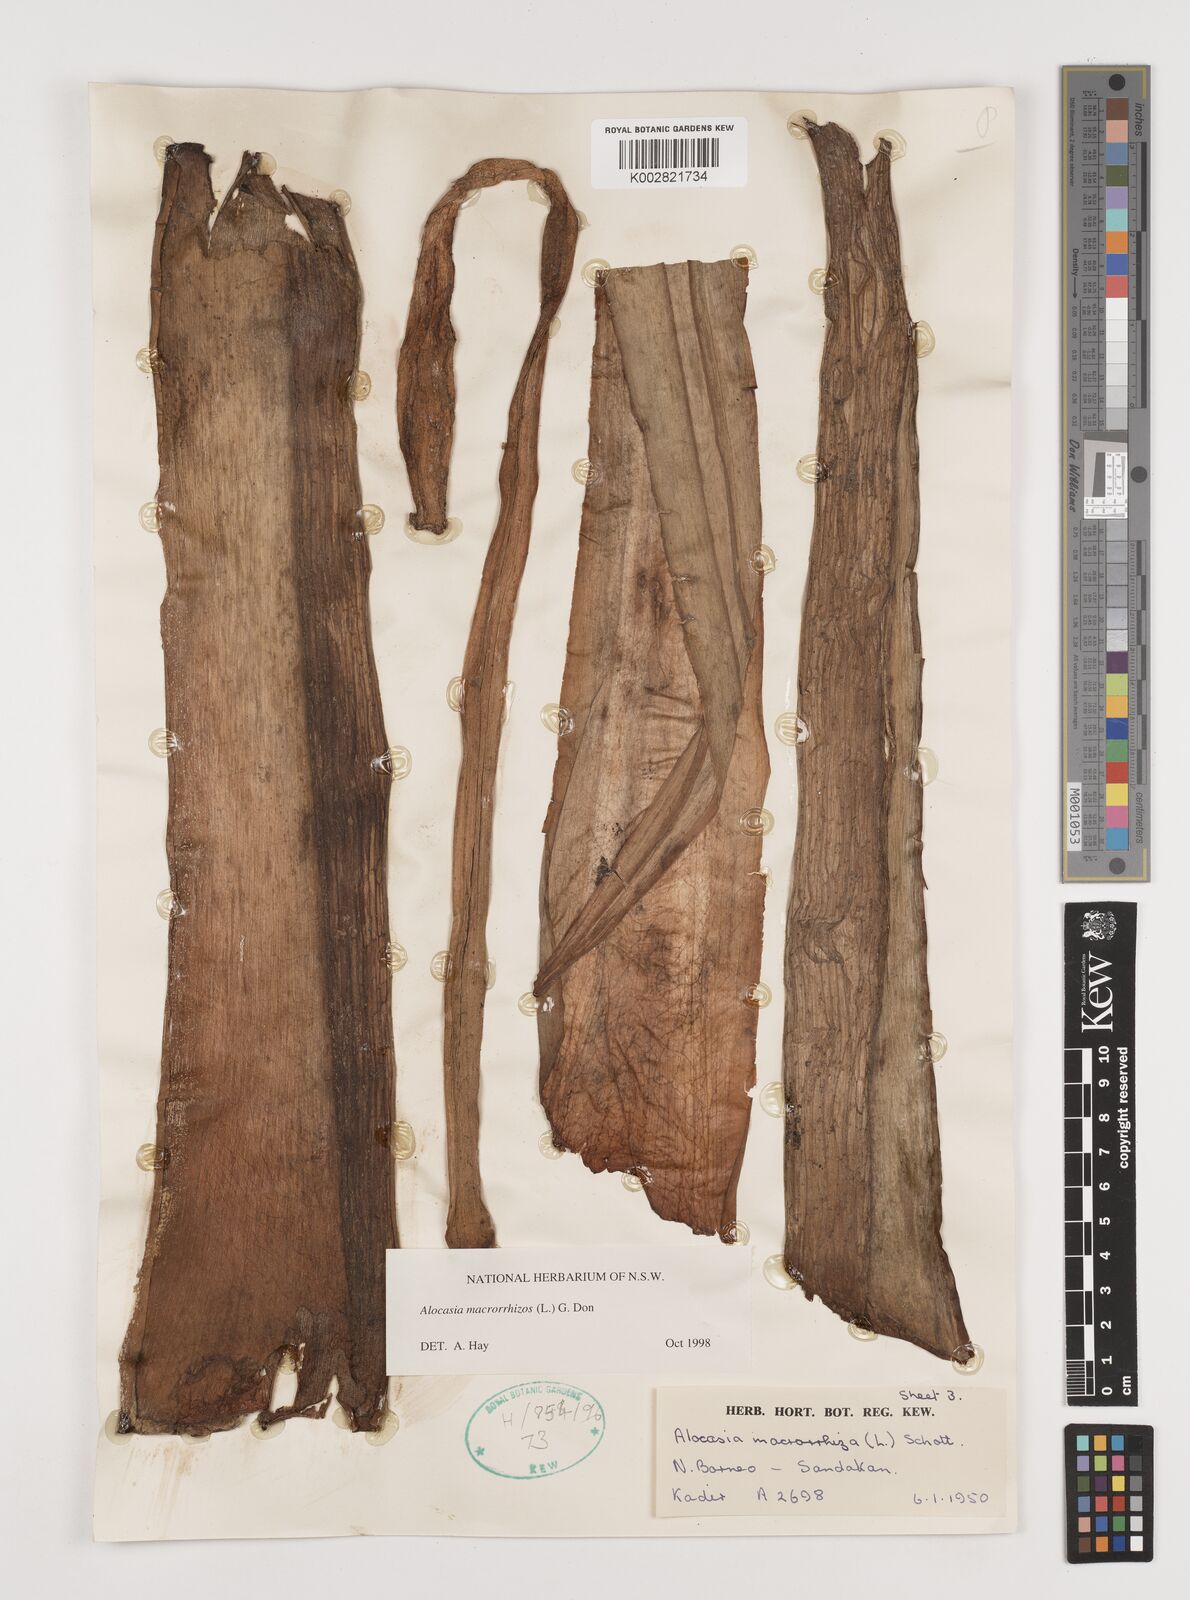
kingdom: Plantae
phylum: Tracheophyta
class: Liliopsida
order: Alismatales
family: Araceae
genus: Alocasia
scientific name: Alocasia macrorrhizos
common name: Giant taro
